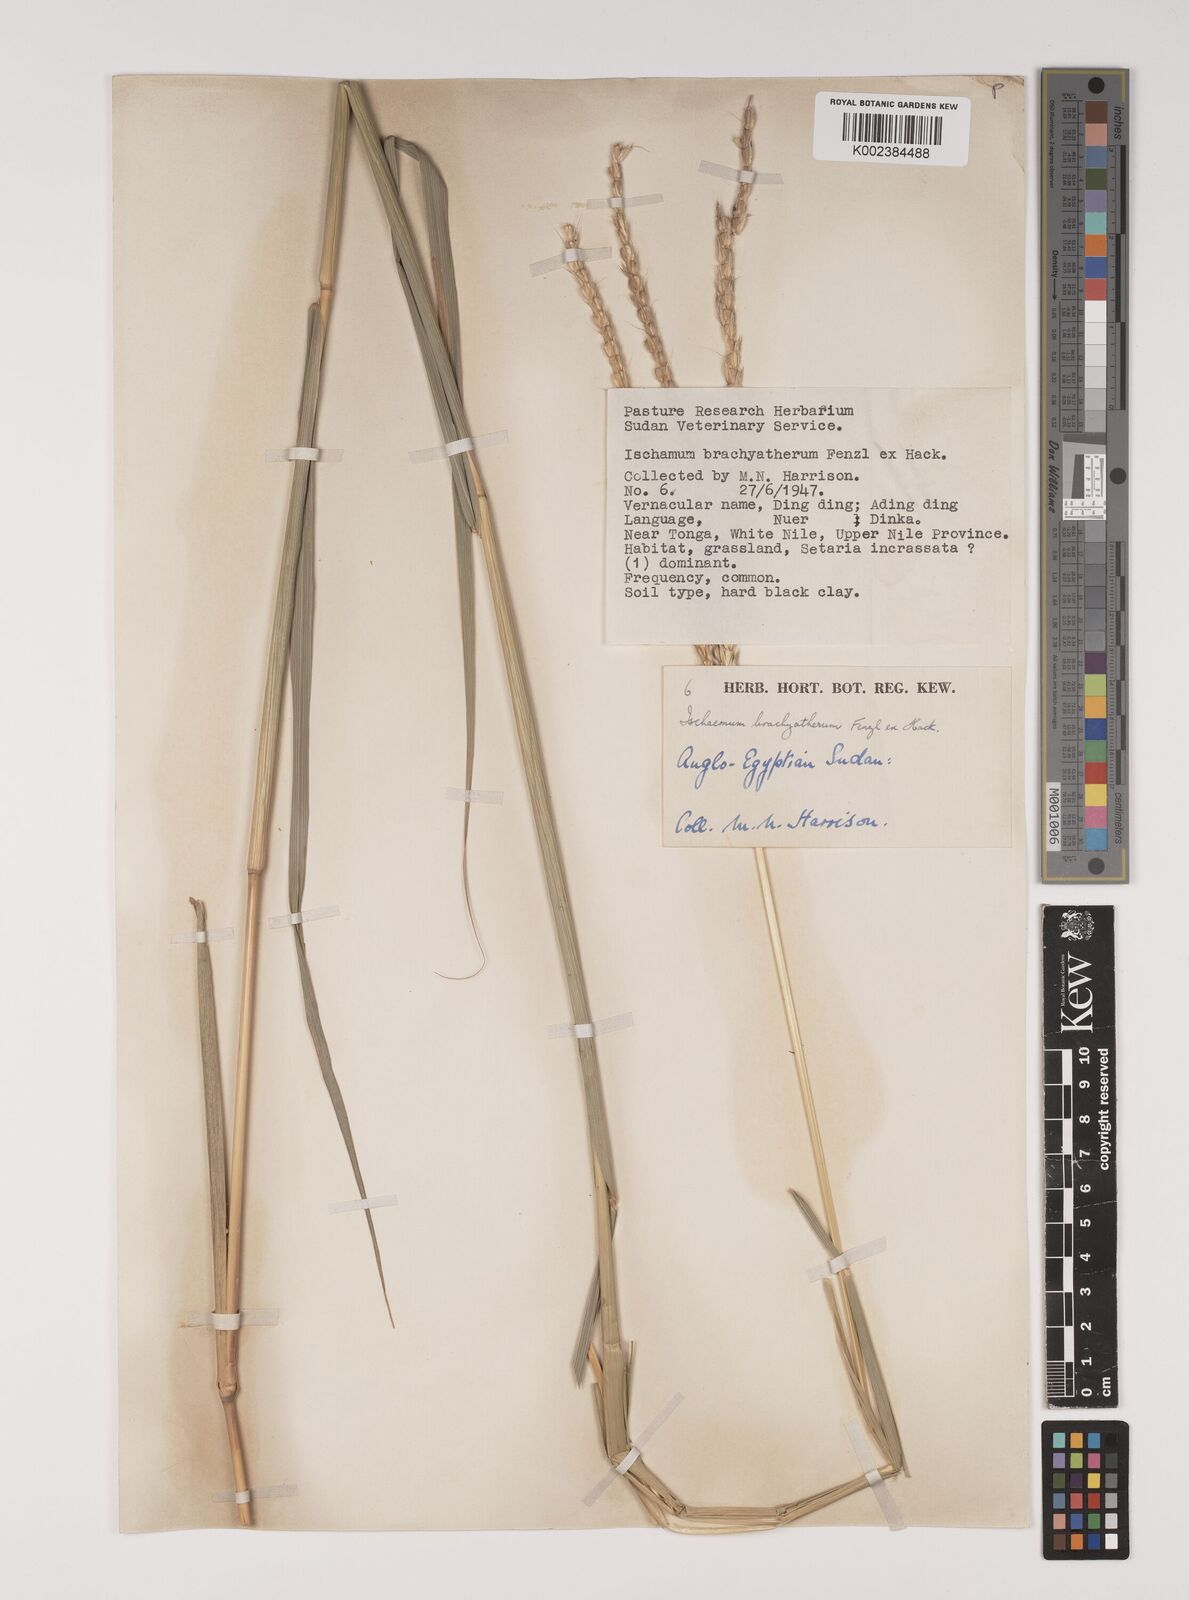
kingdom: Plantae
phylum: Tracheophyta
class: Liliopsida
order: Poales
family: Poaceae
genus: Ischaemum
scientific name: Ischaemum afrum
